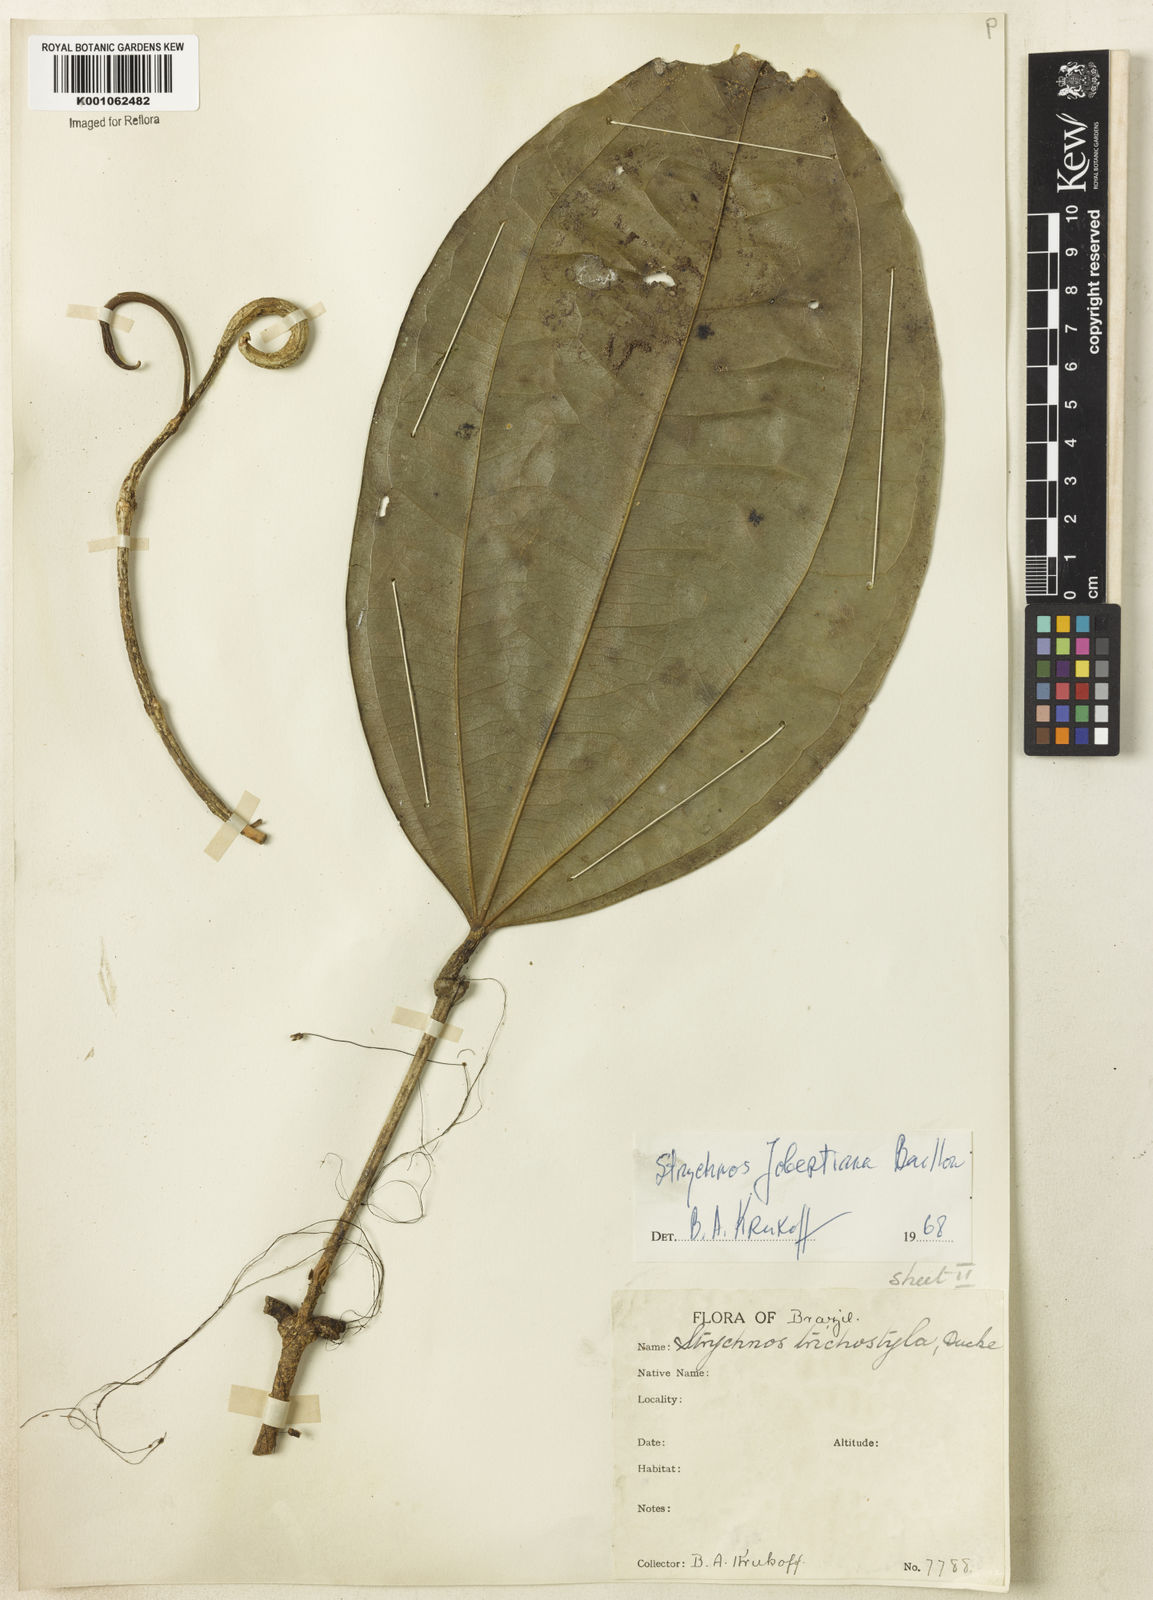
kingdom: Plantae
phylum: Tracheophyta
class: Magnoliopsida
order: Gentianales
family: Loganiaceae
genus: Strychnos
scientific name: Strychnos jobertiana
